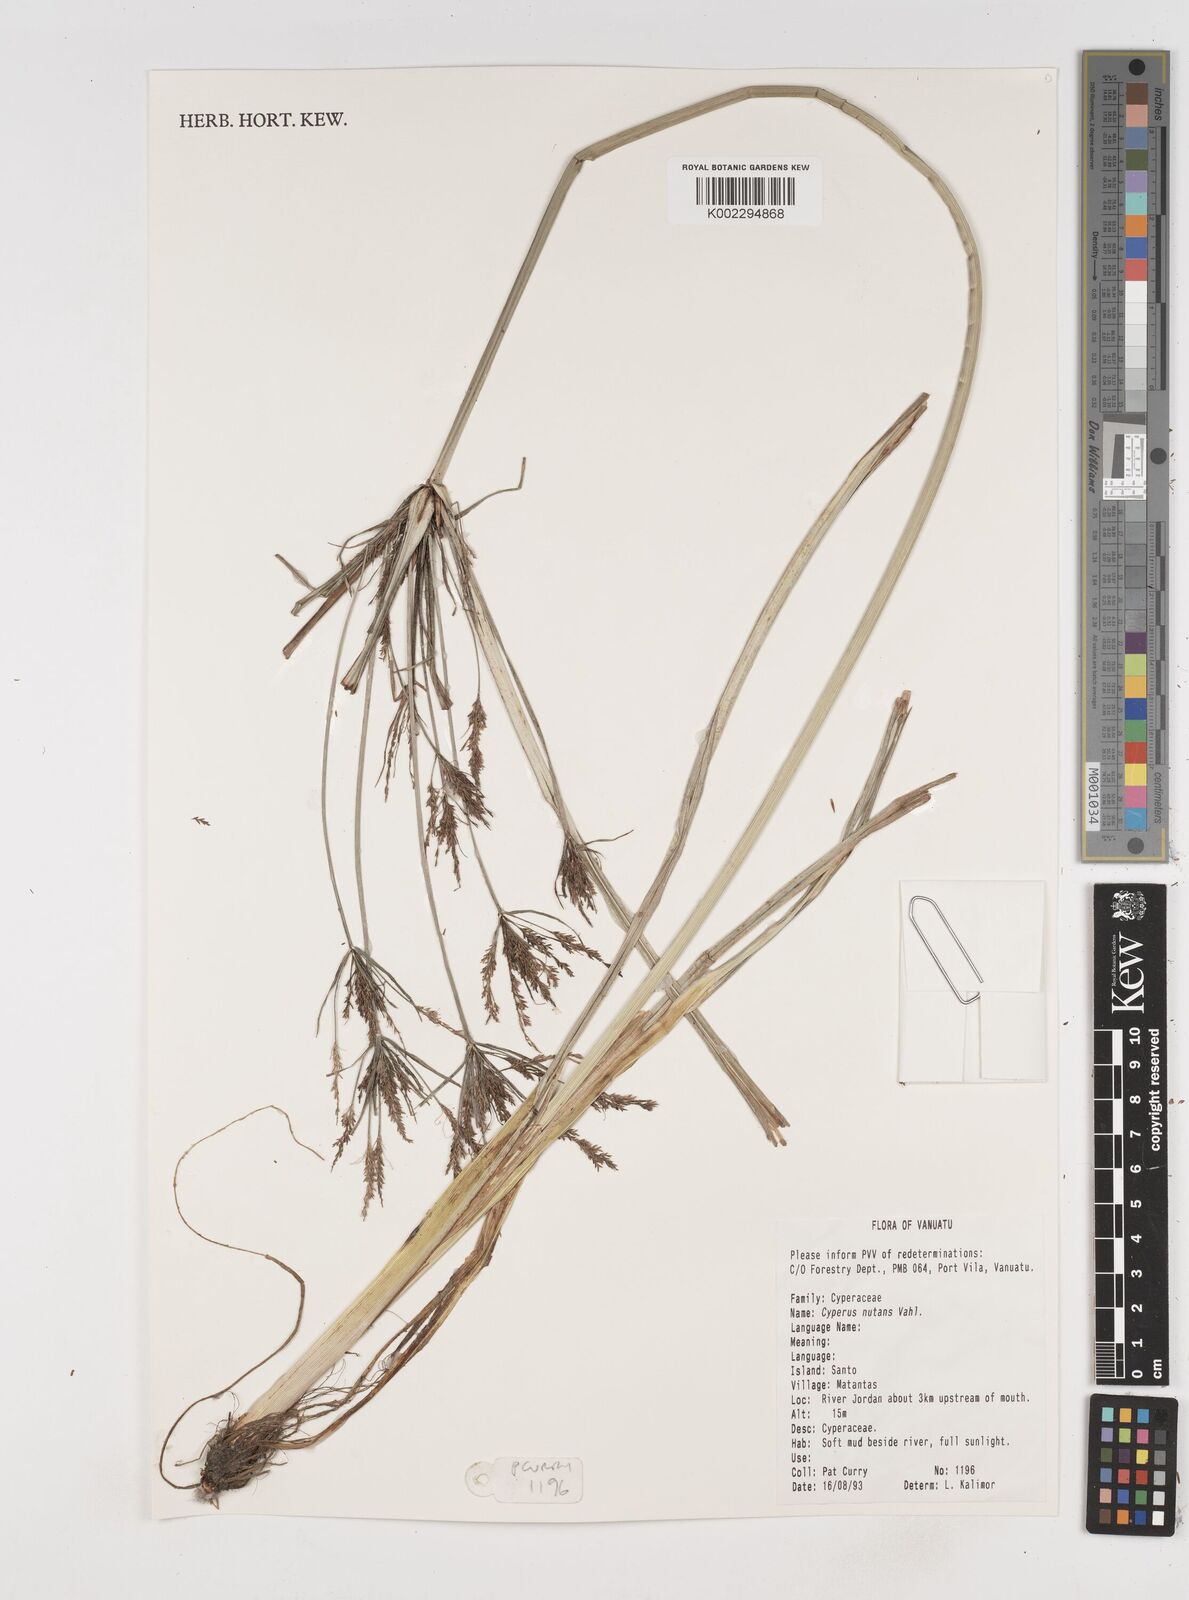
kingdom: Plantae
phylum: Tracheophyta
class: Liliopsida
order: Poales
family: Cyperaceae
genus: Cyperus
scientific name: Cyperus nutans
